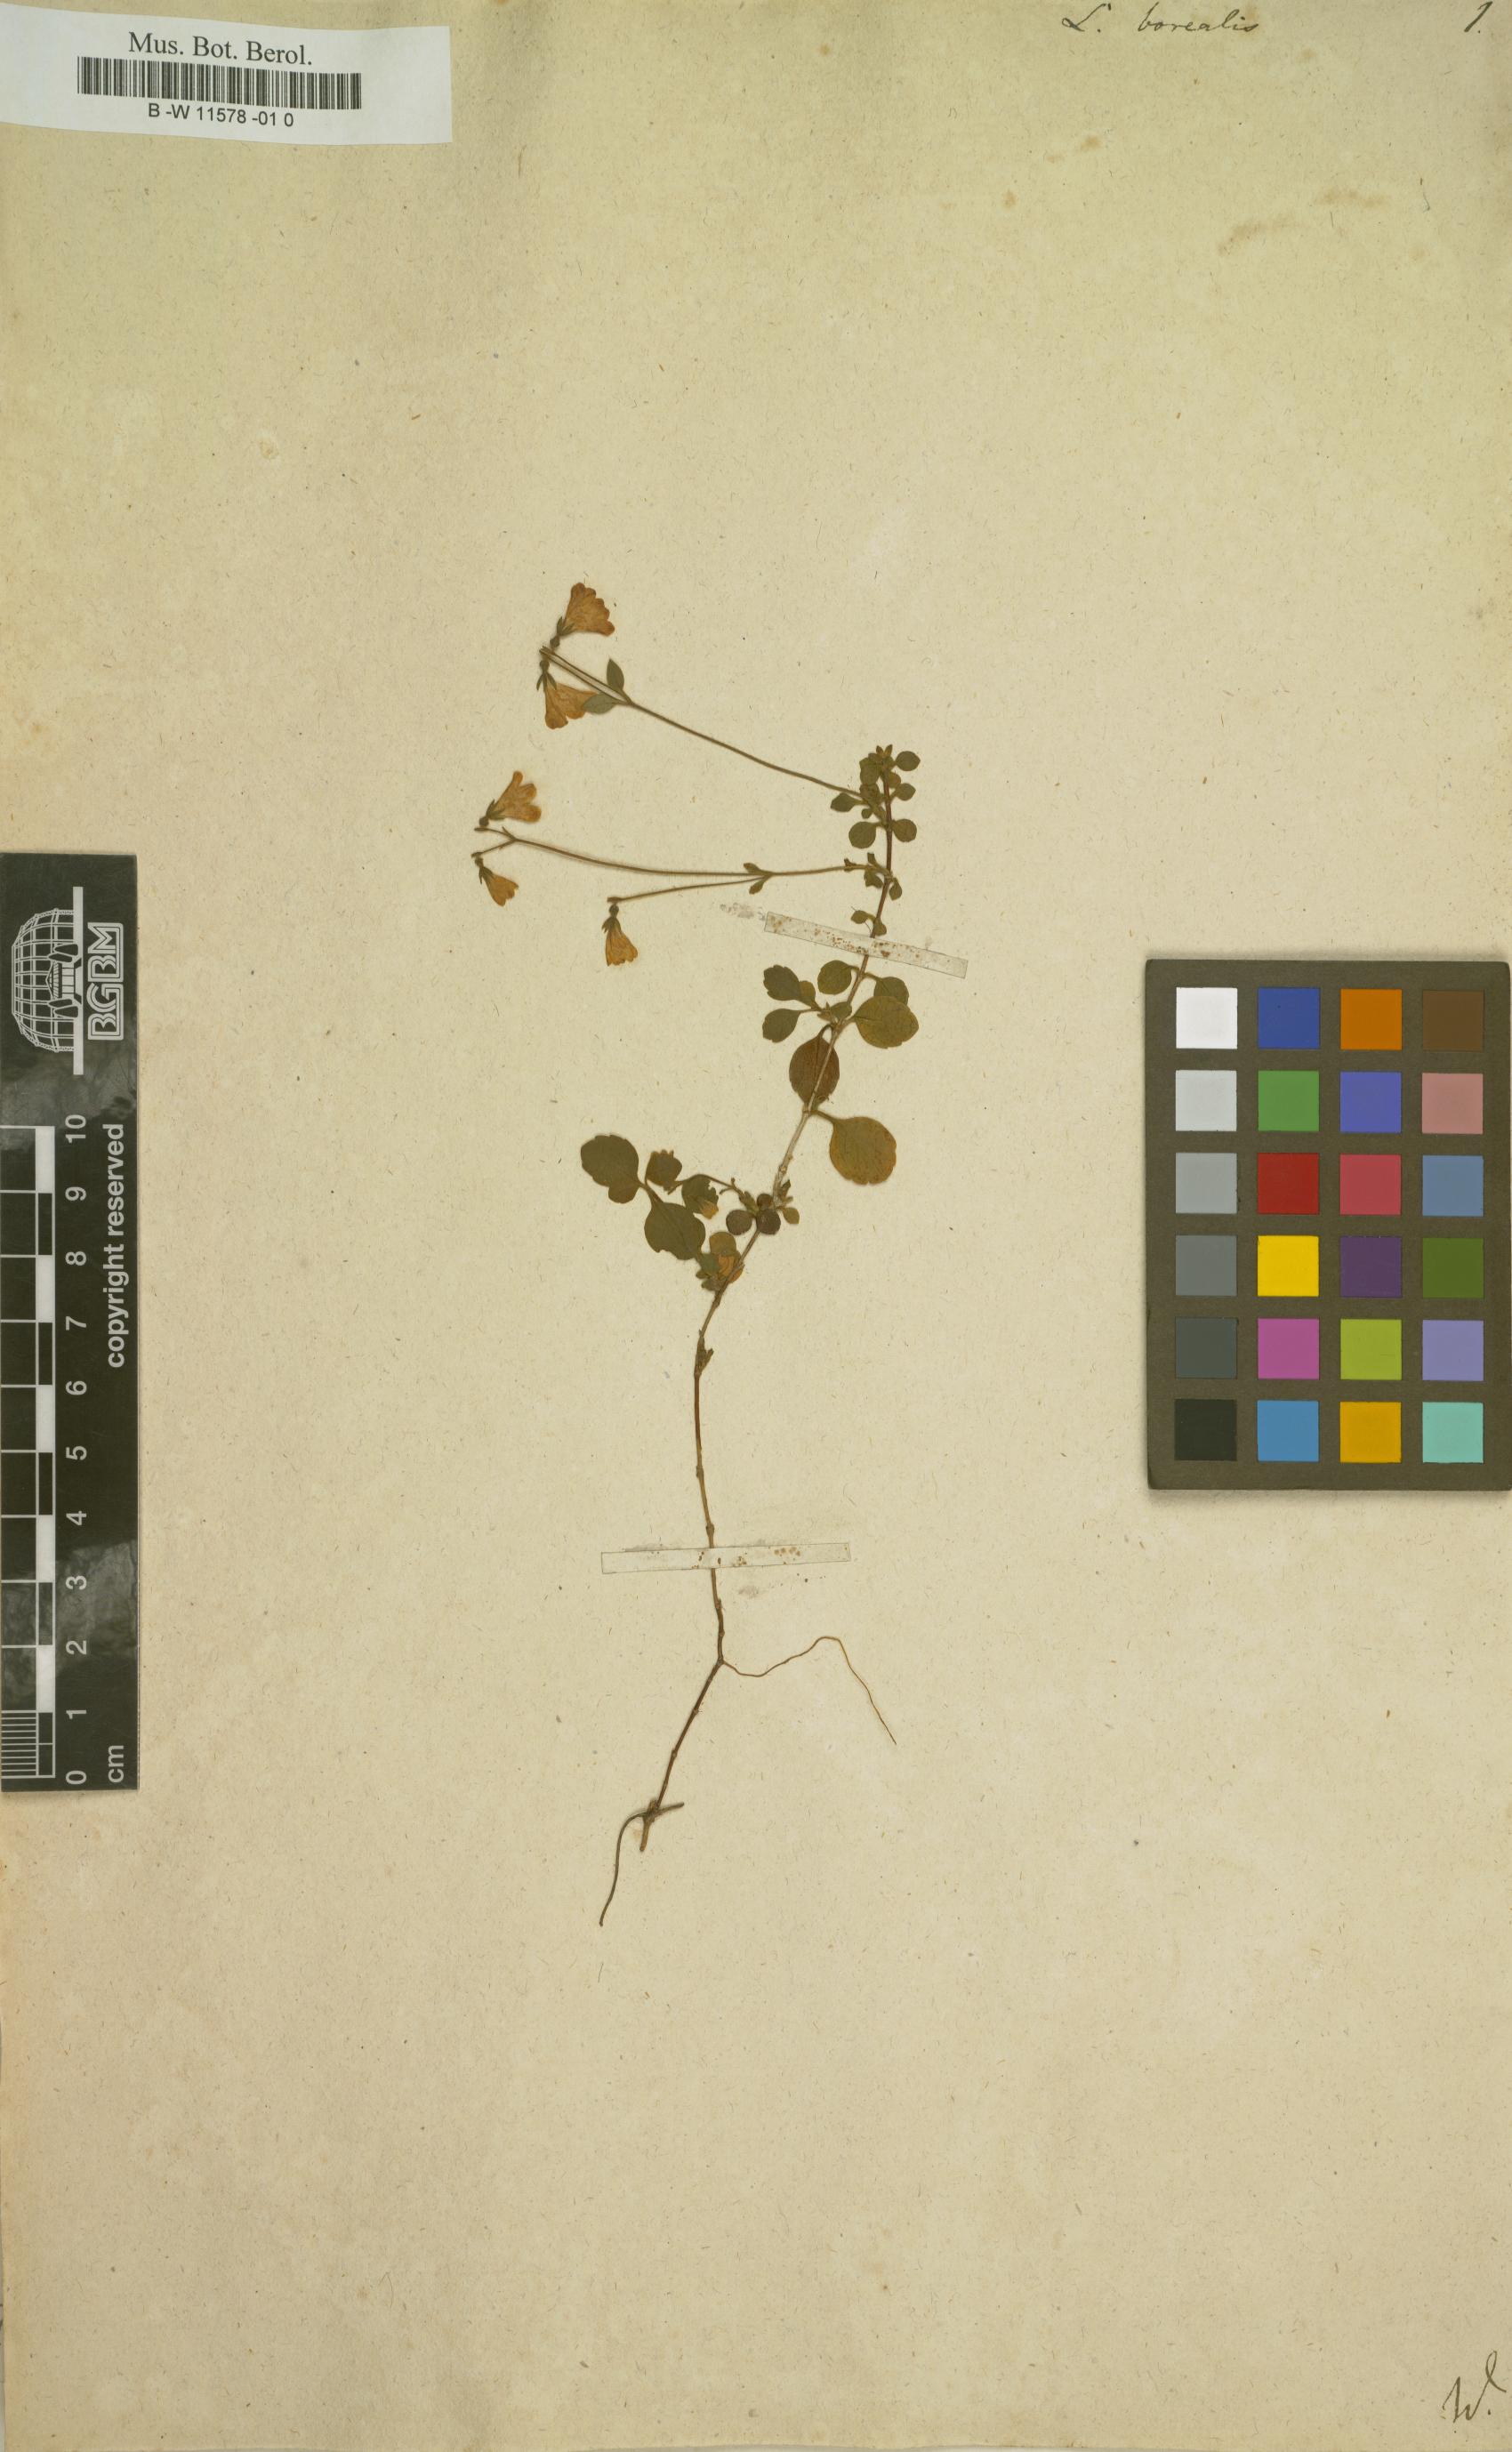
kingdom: Plantae
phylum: Tracheophyta
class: Magnoliopsida
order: Dipsacales
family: Caprifoliaceae
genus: Linnaea
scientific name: Linnaea borealis
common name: Twinflower
